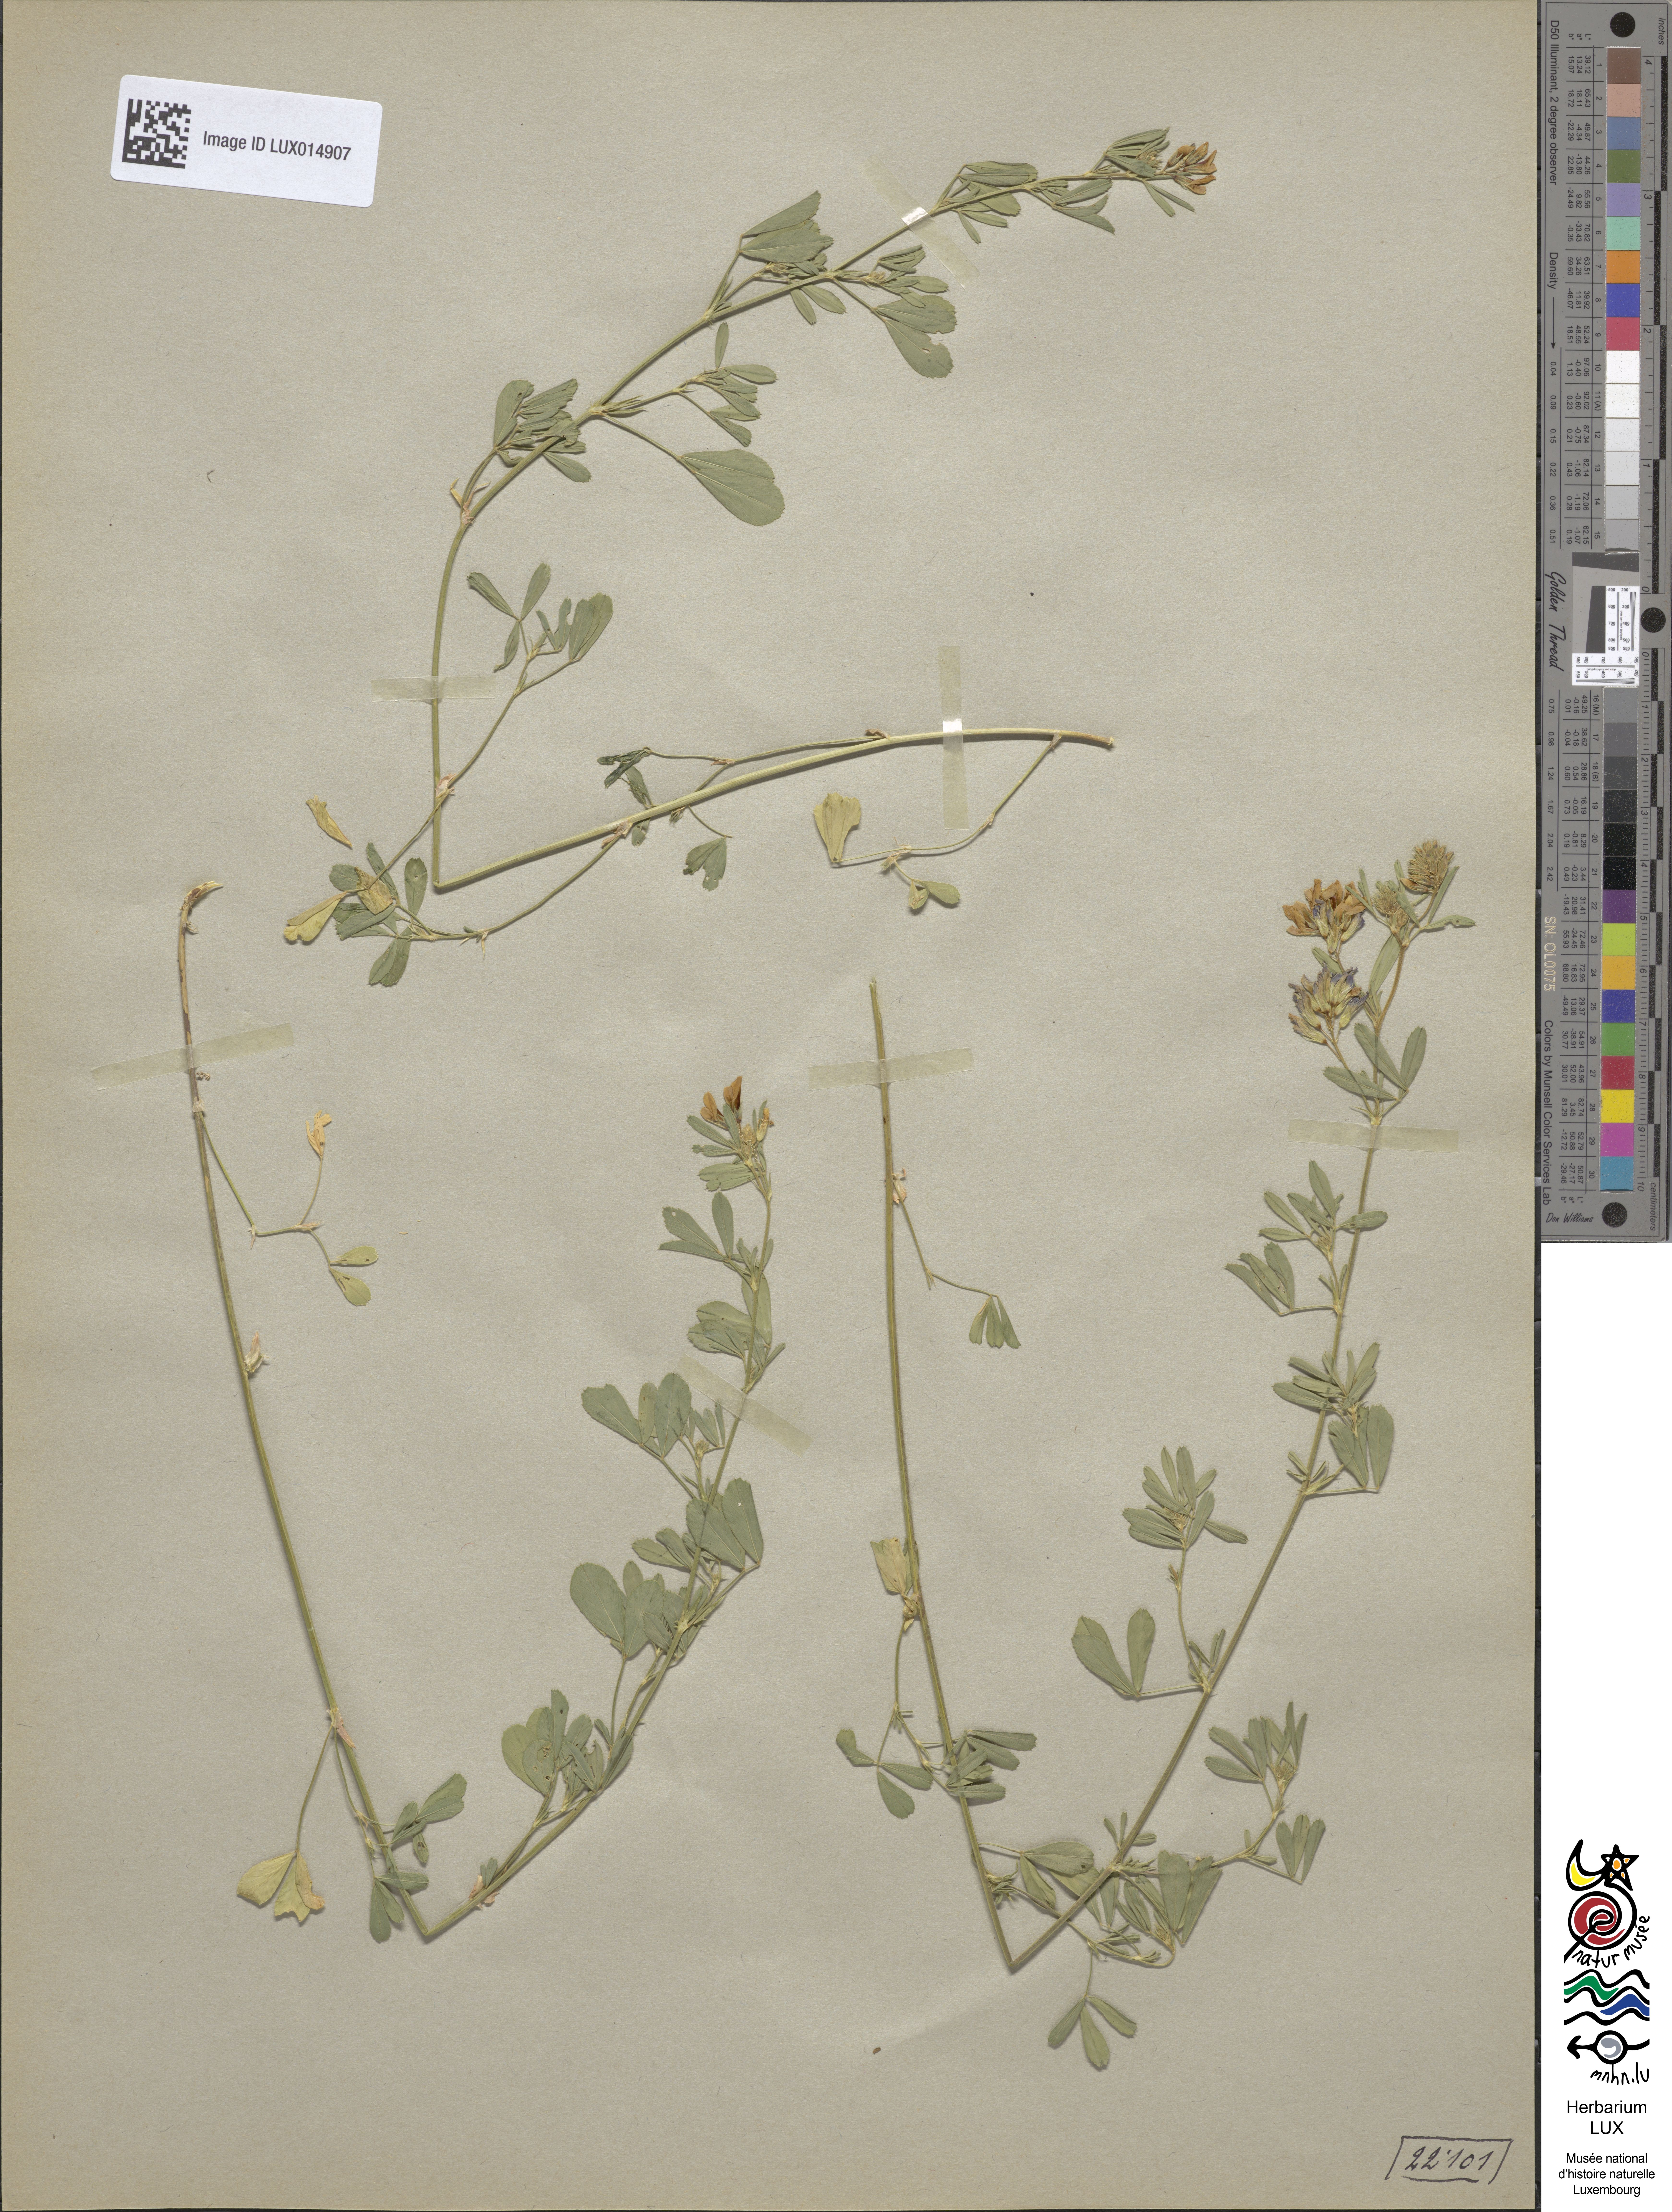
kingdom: Plantae
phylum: Tracheophyta
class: Magnoliopsida
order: Fabales
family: Fabaceae
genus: Medicago
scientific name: Medicago varia
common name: Sand lucerne
